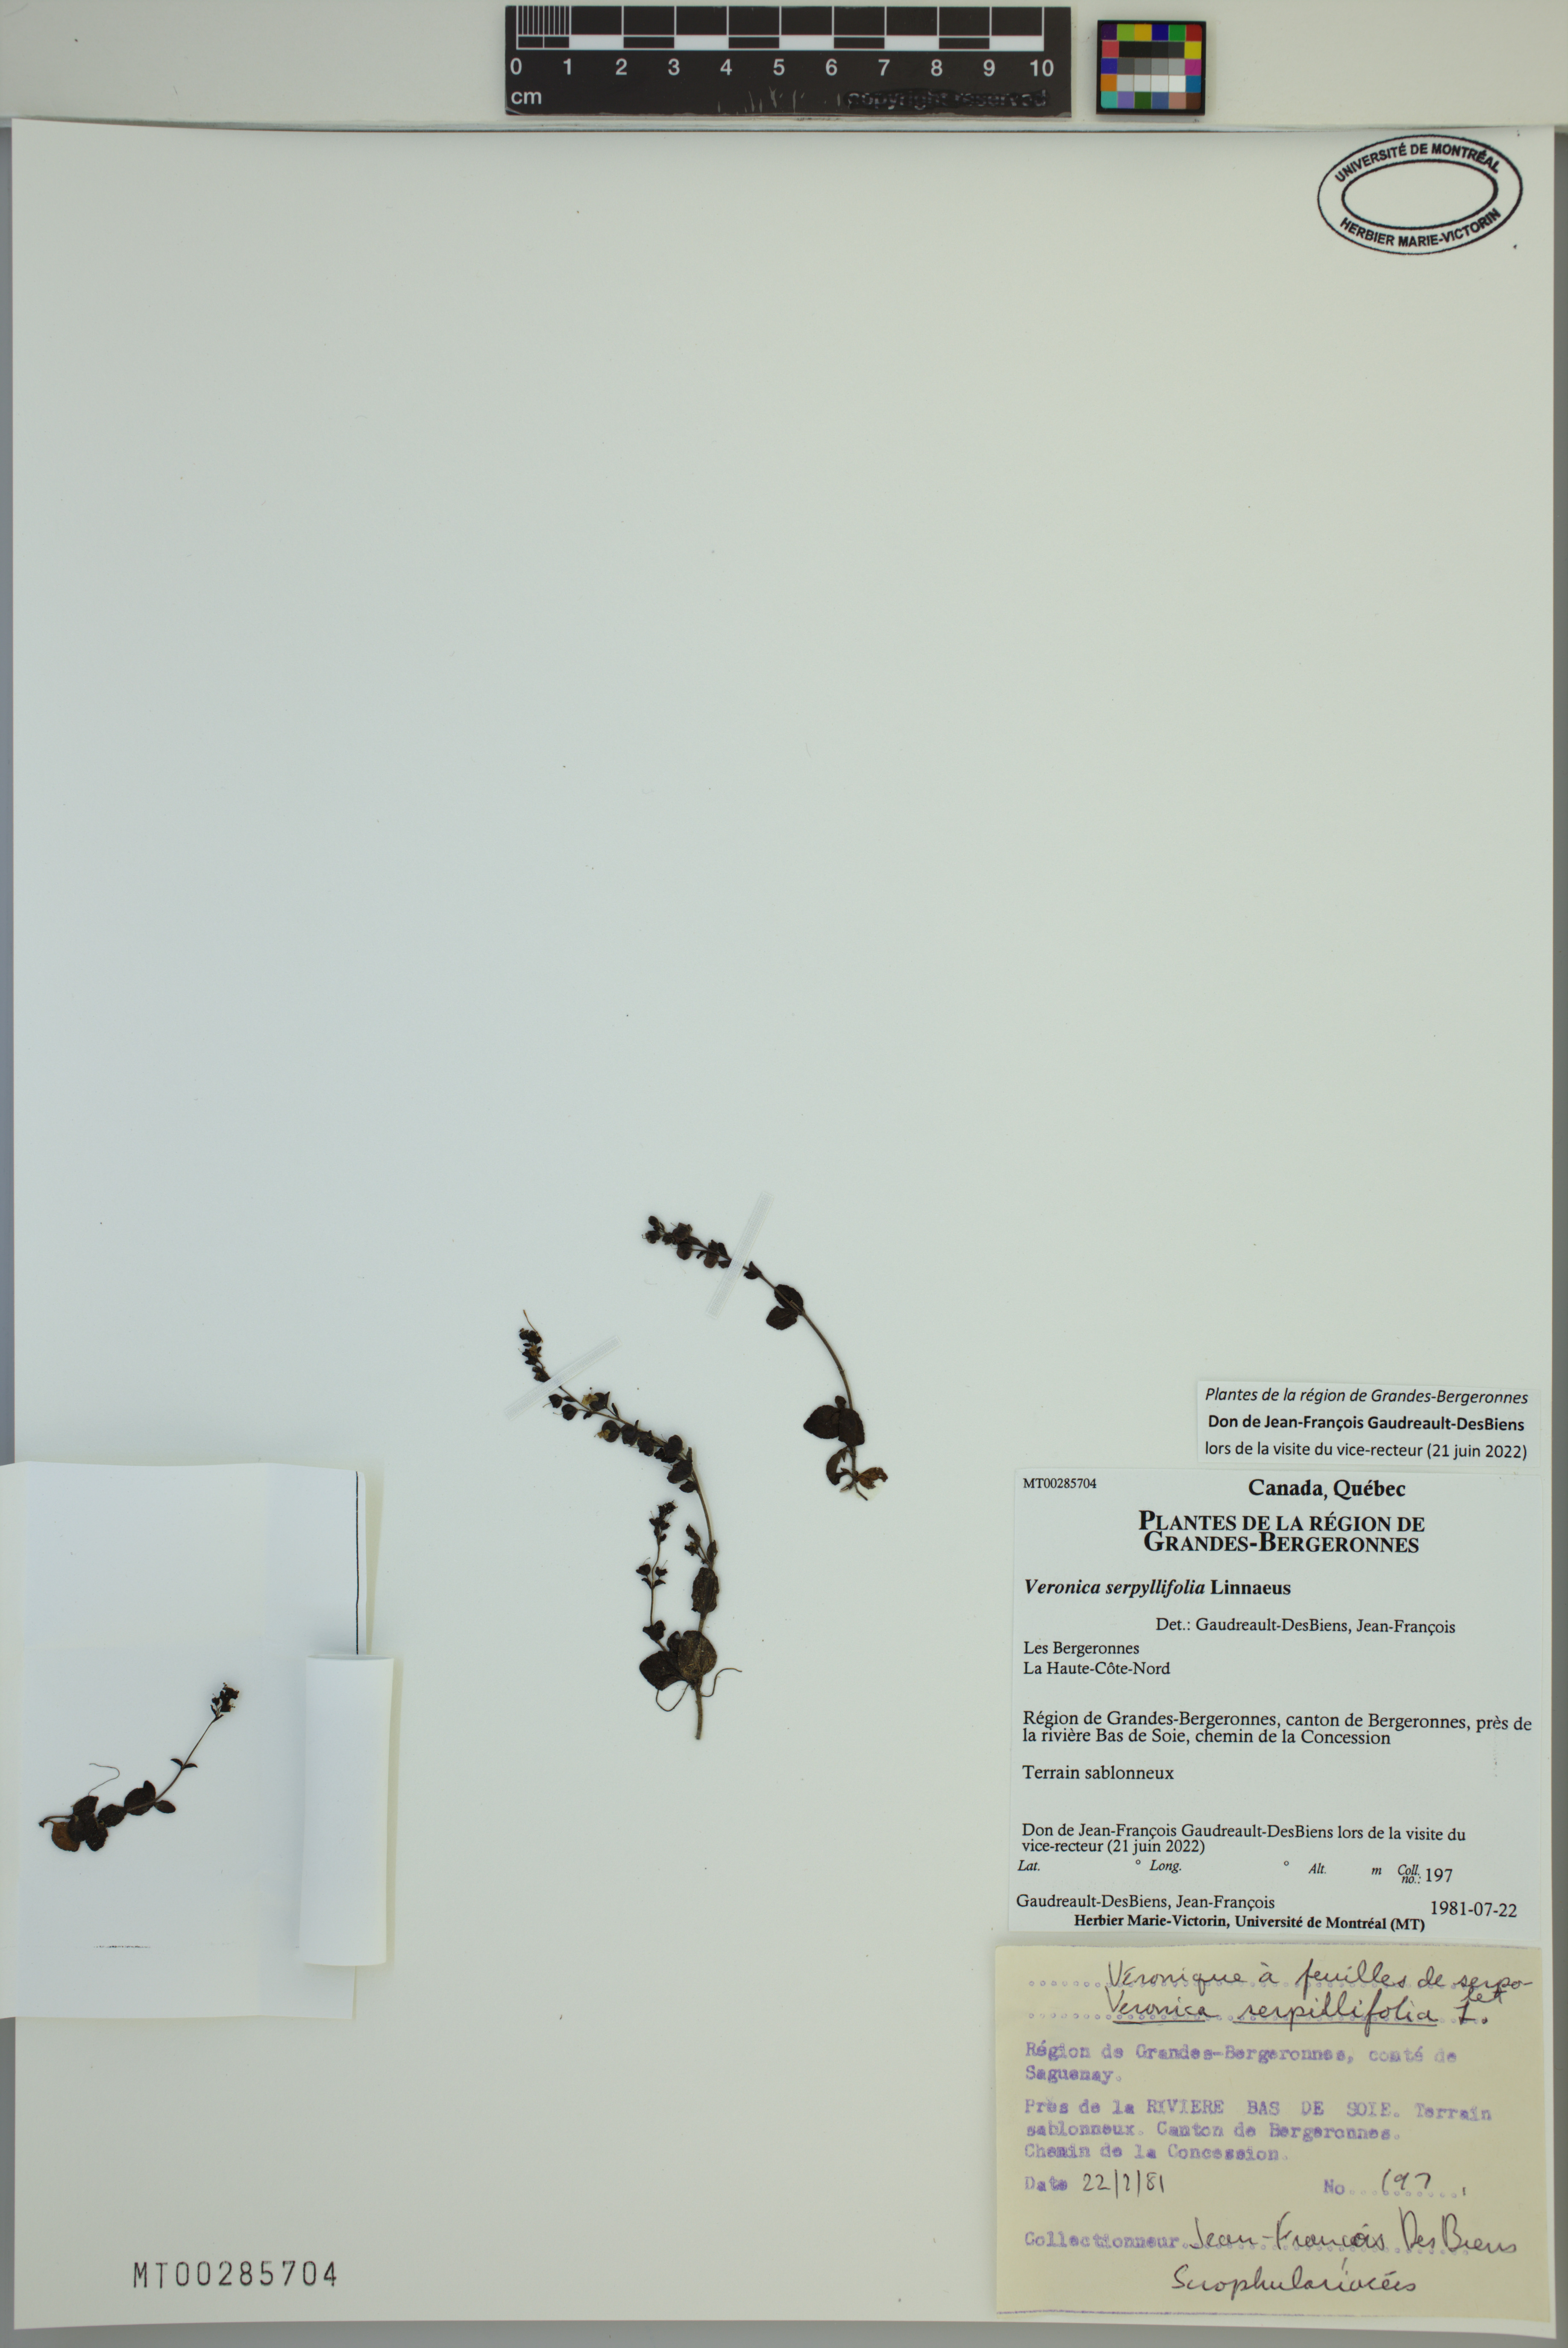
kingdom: Plantae
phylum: Tracheophyta
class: Magnoliopsida
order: Lamiales
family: Plantaginaceae
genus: Veronica
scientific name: Veronica serpyllifolia
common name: Thyme-leaved speedwell
